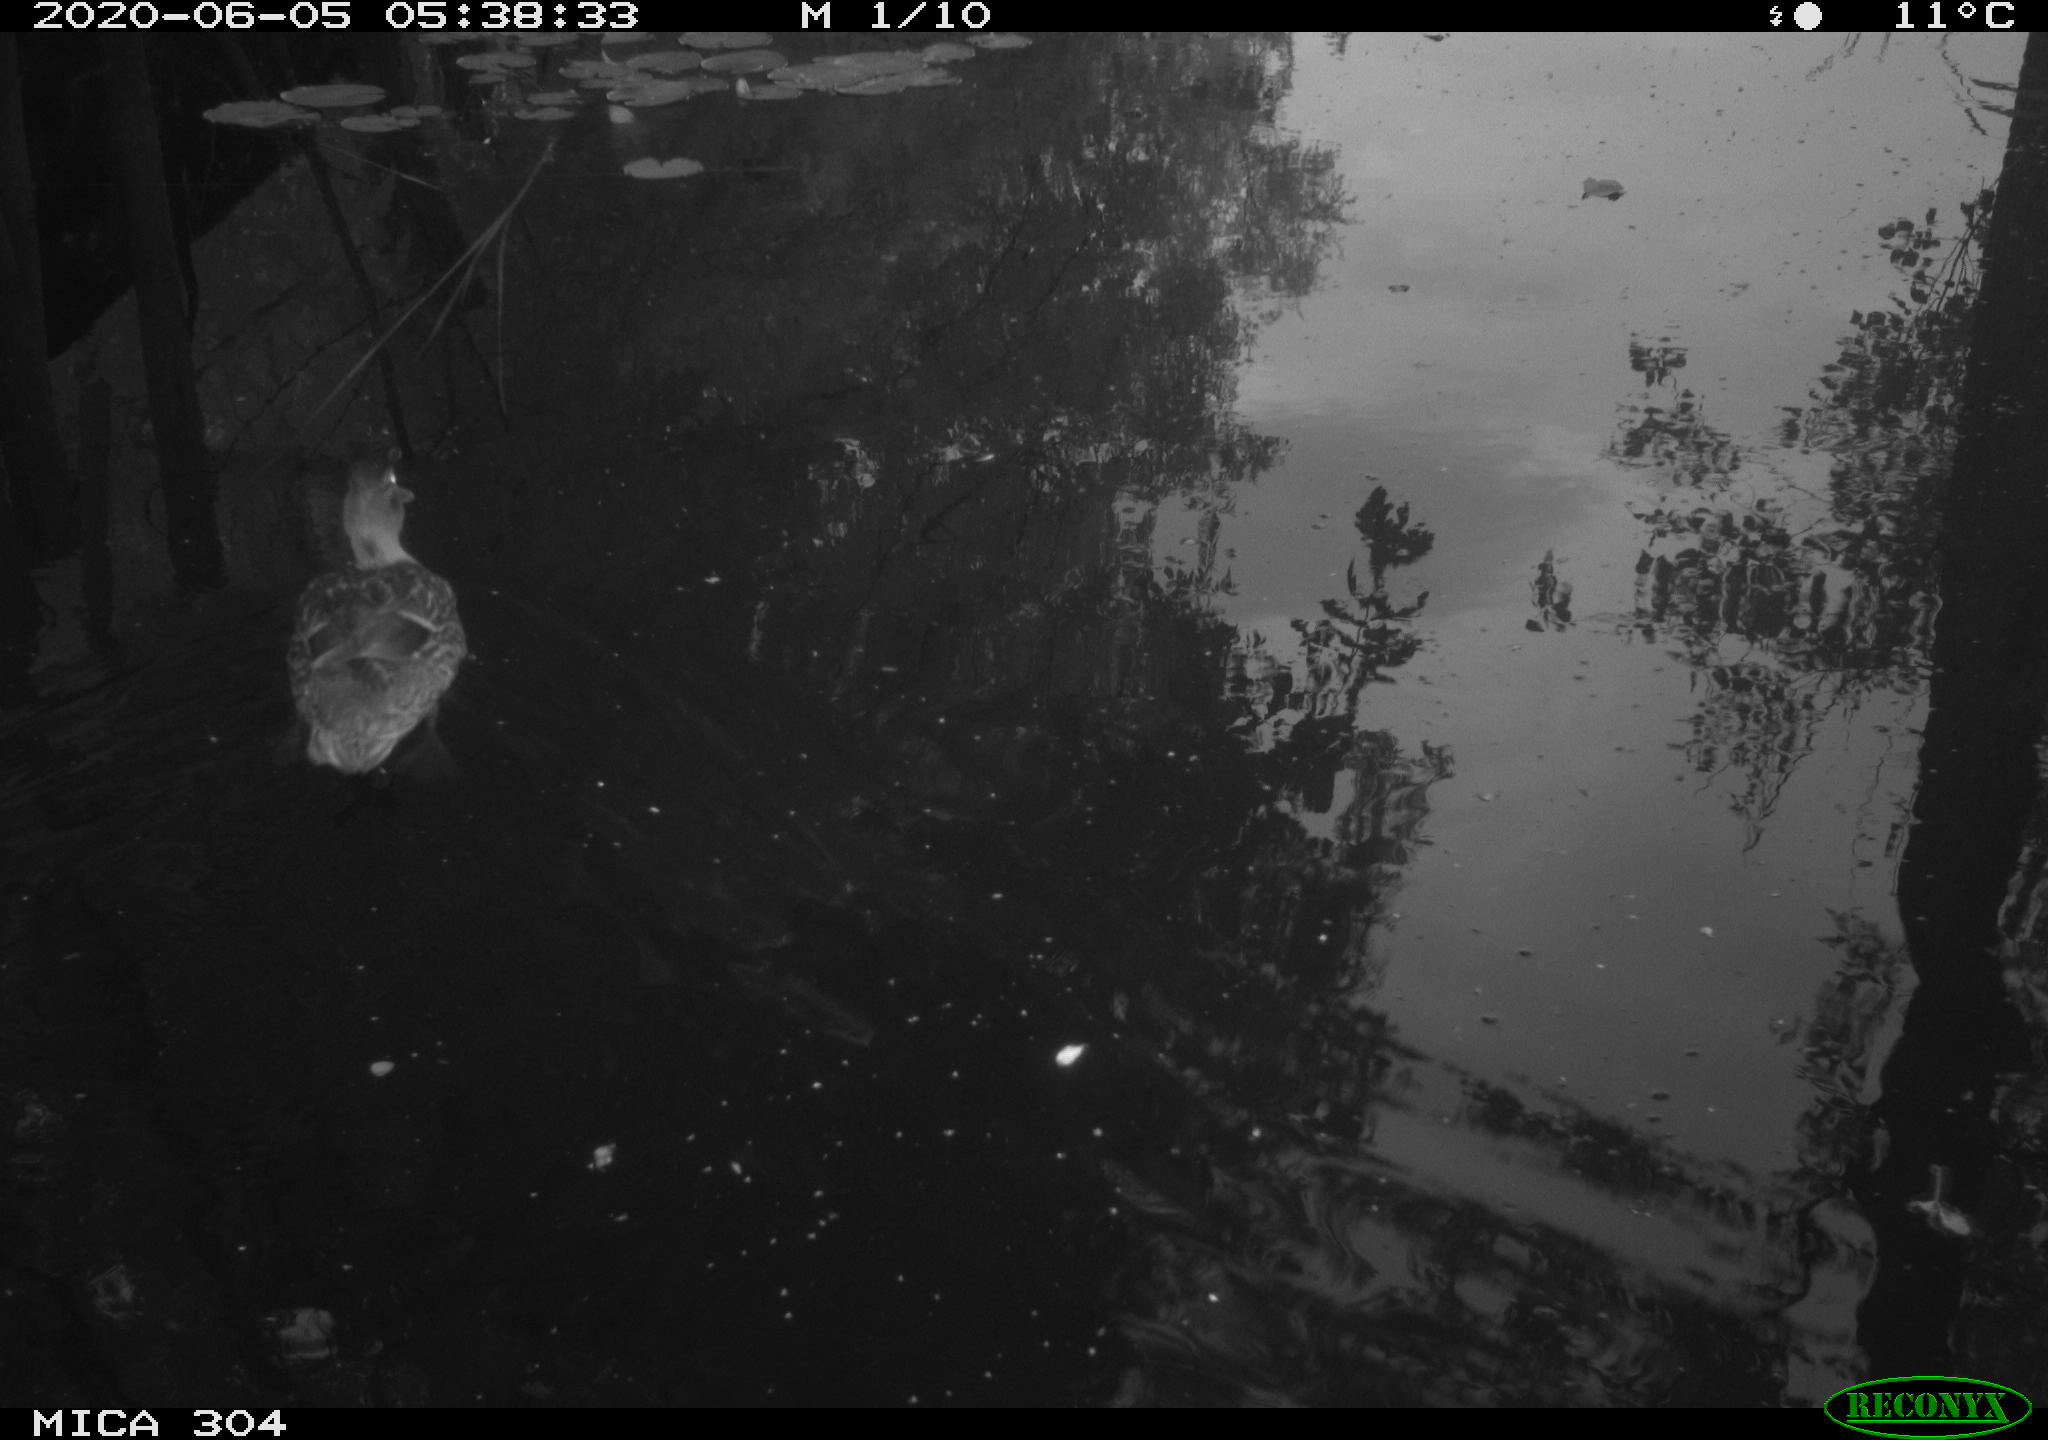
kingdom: Animalia
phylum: Chordata
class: Aves
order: Anseriformes
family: Anatidae
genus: Anas
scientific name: Anas platyrhynchos
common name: Mallard
